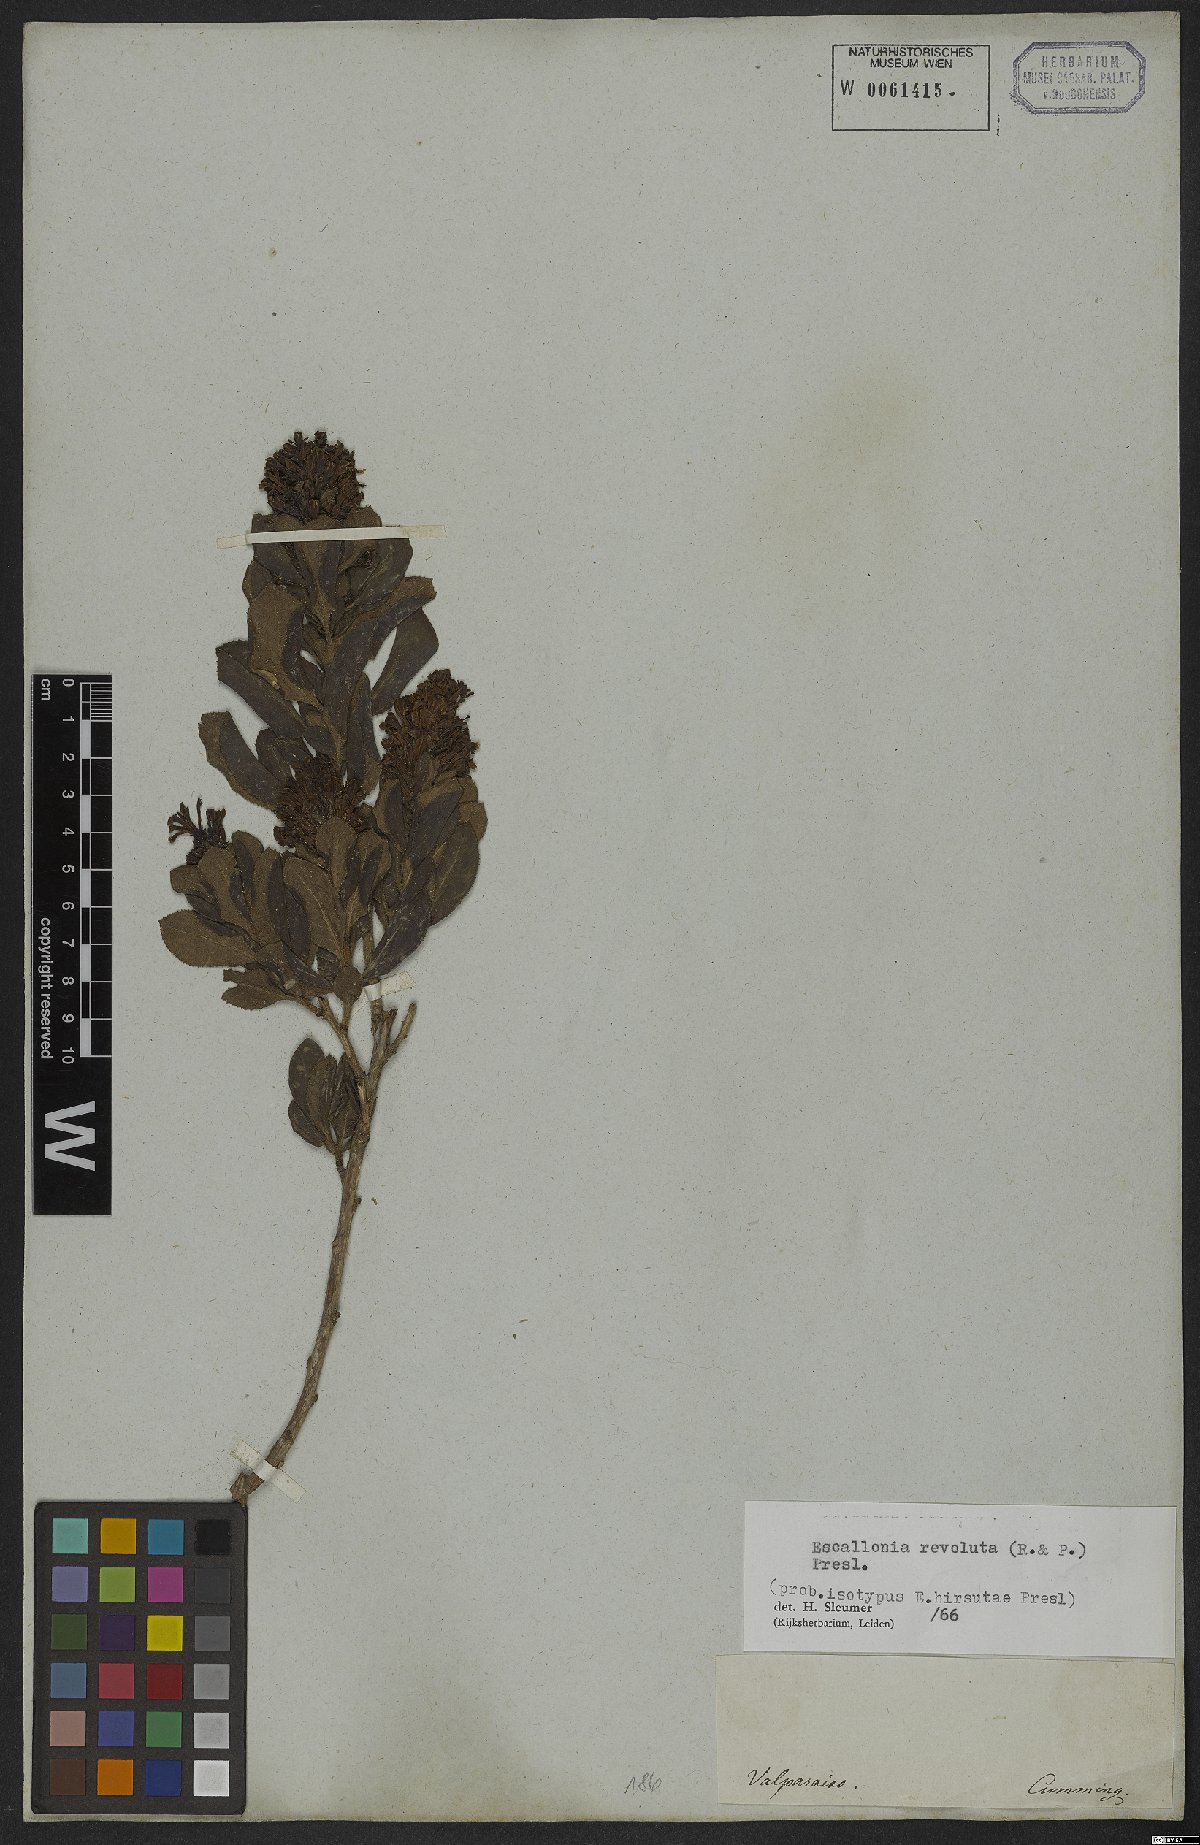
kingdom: Plantae
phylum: Tracheophyta
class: Magnoliopsida
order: Escalloniales
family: Escalloniaceae
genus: Escallonia
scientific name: Escallonia revoluta
